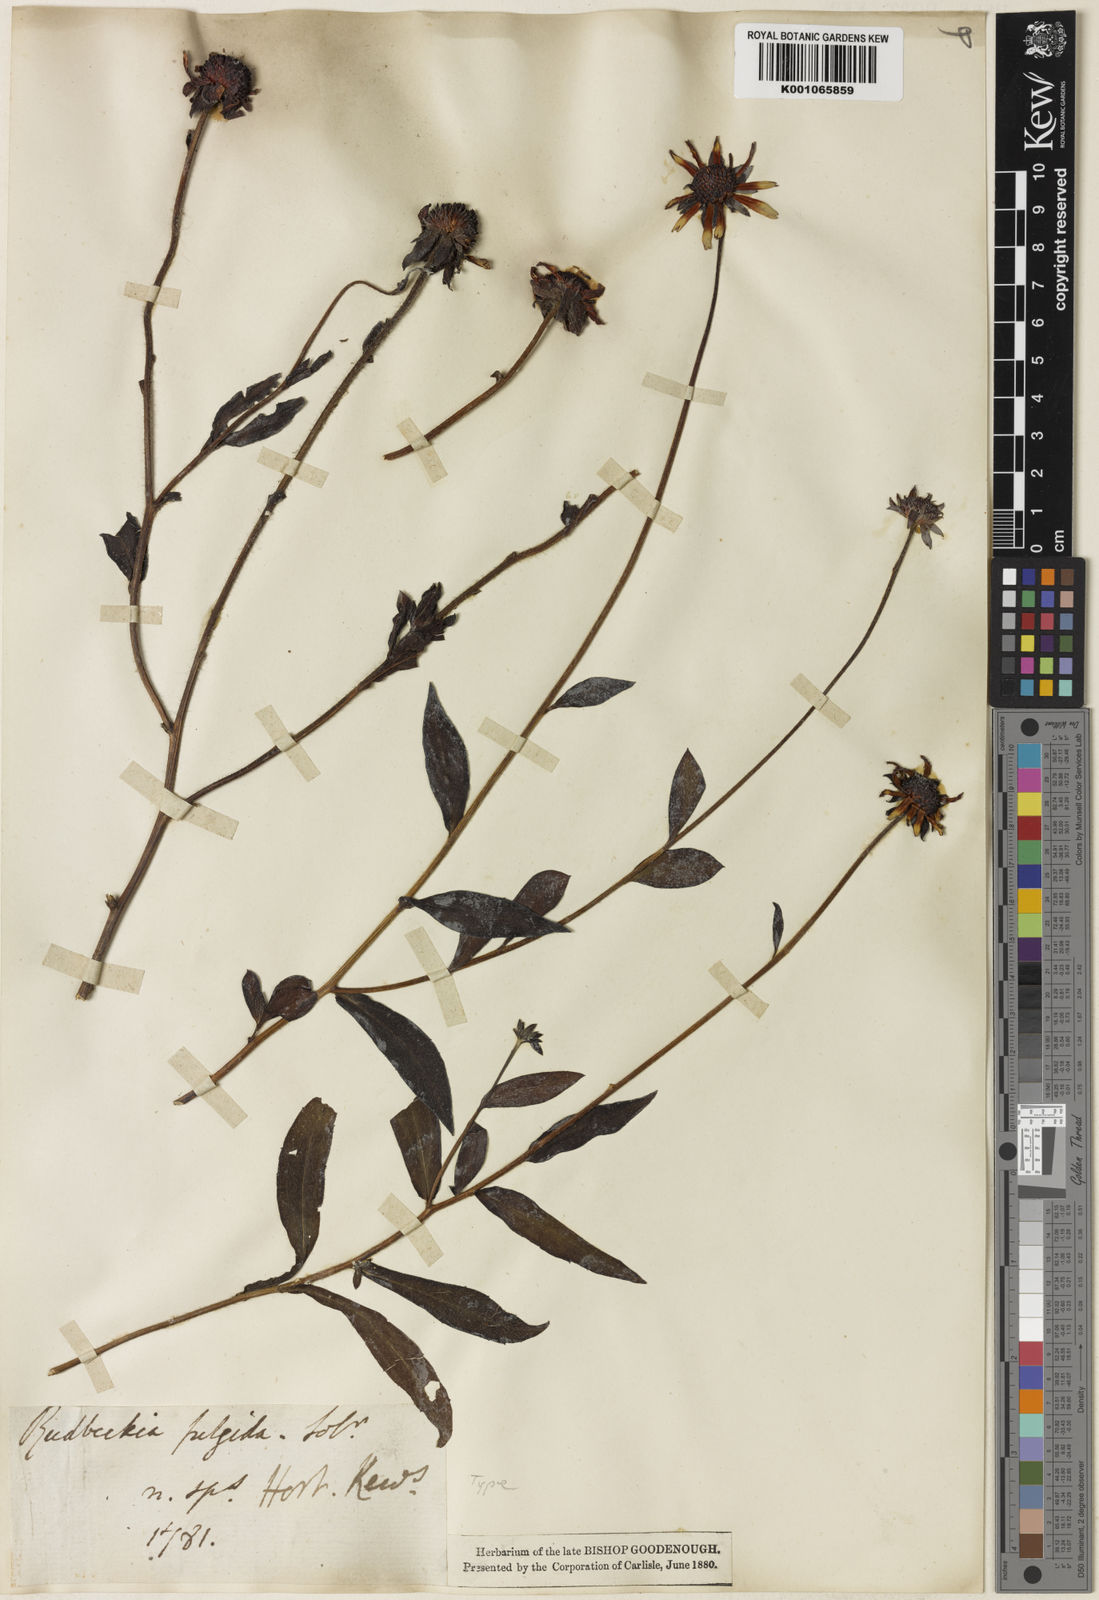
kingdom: Plantae
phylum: Tracheophyta
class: Magnoliopsida
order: Asterales
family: Asteraceae
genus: Rudbeckia
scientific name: Rudbeckia fulgida
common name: Perennial coneflower
